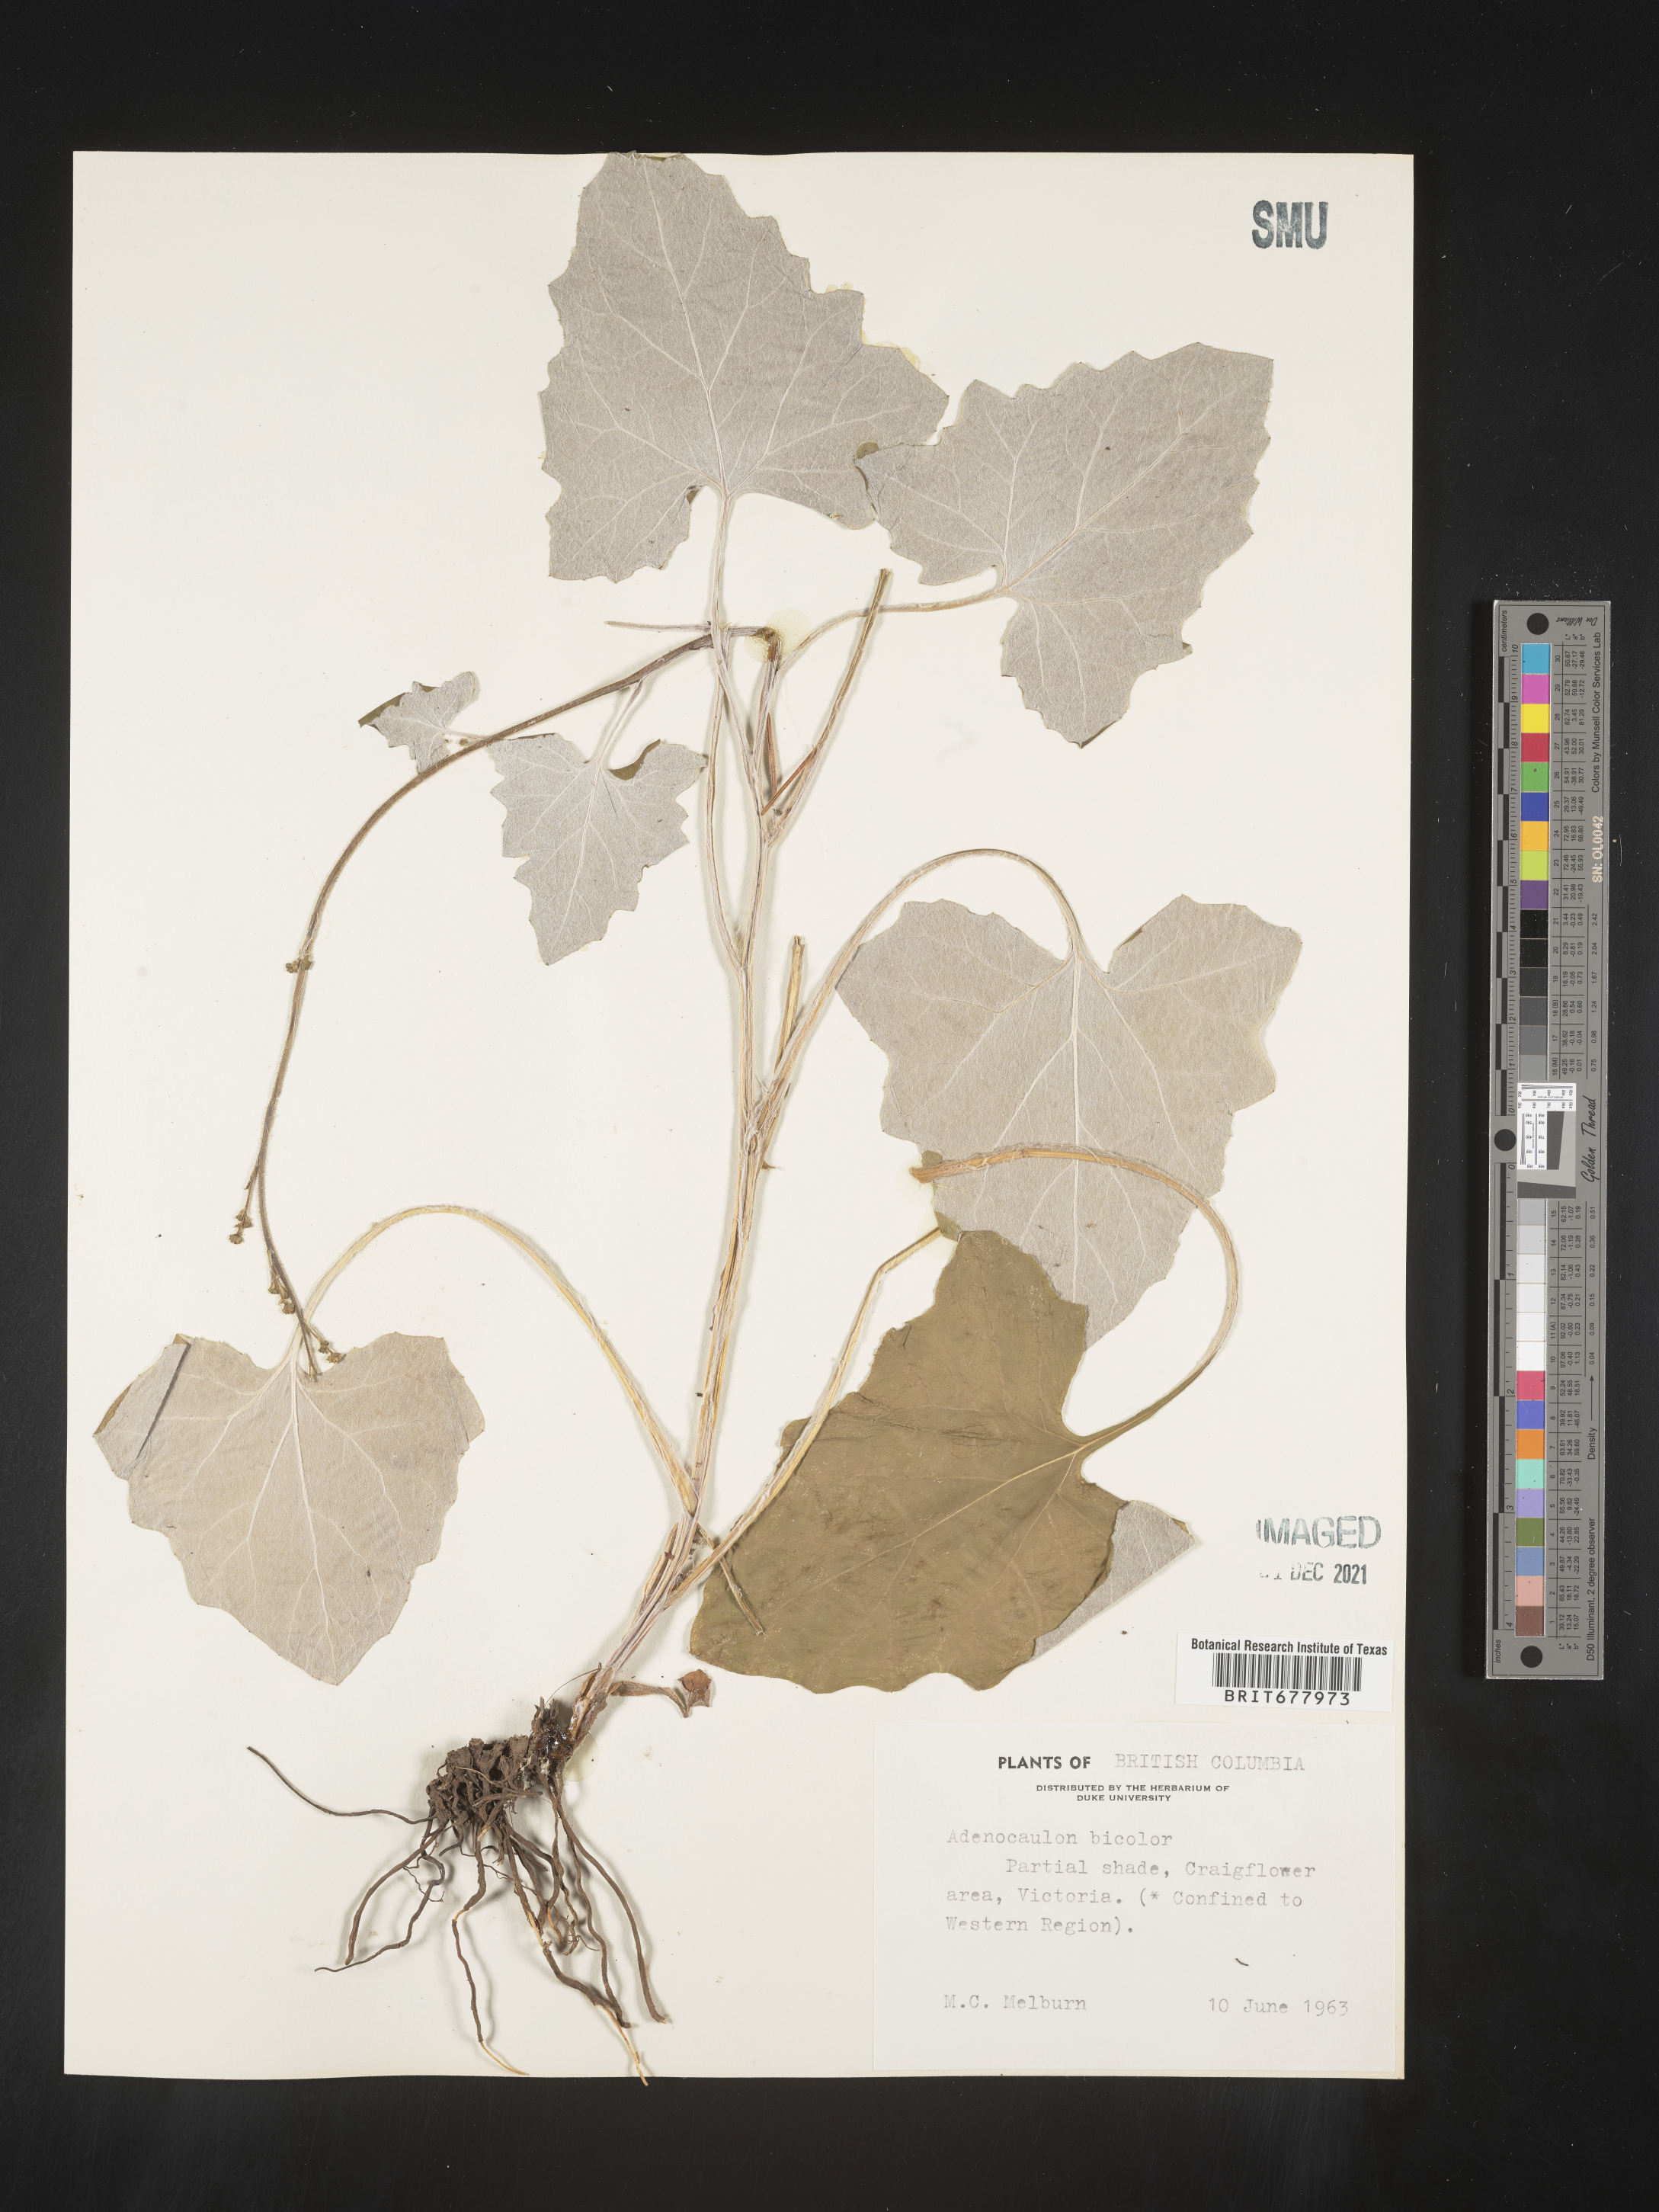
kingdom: Plantae
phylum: Tracheophyta
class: Magnoliopsida
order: Asterales
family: Asteraceae
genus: Adenocaulon
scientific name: Adenocaulon
